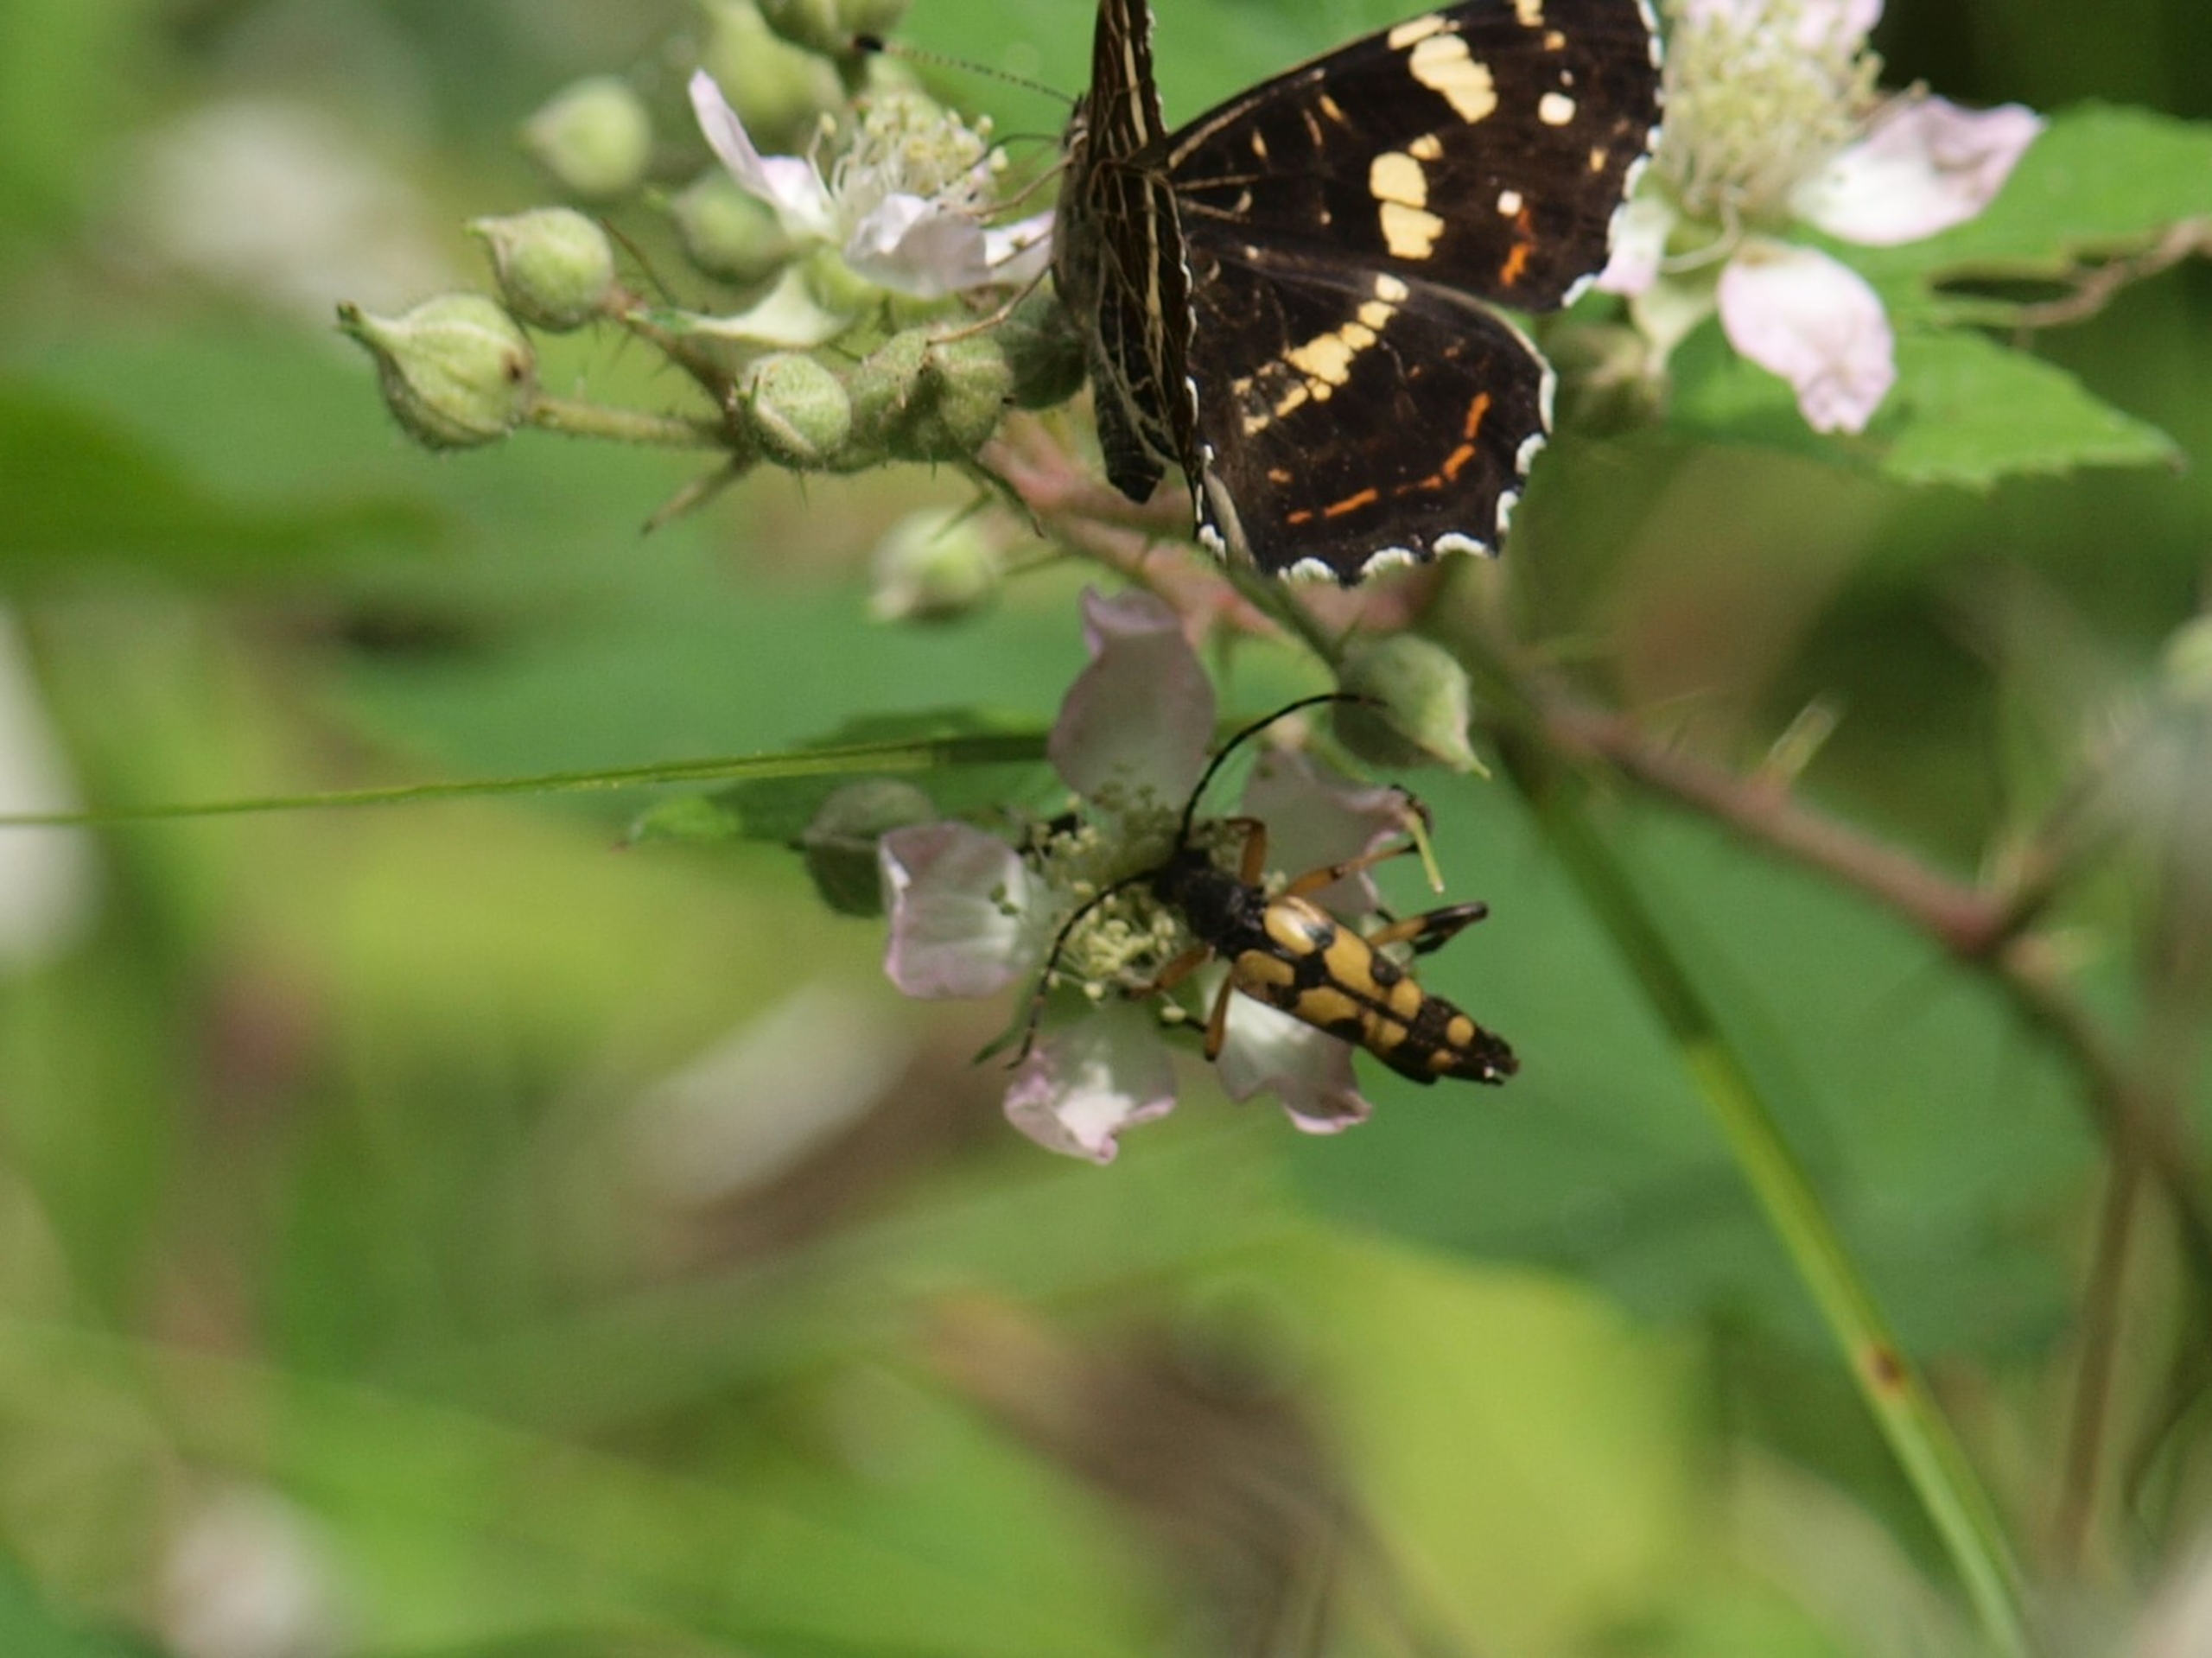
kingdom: Animalia
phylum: Arthropoda
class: Insecta
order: Coleoptera
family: Cerambycidae
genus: Rutpela
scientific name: Rutpela maculata
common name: Sydlig blomsterbuk
